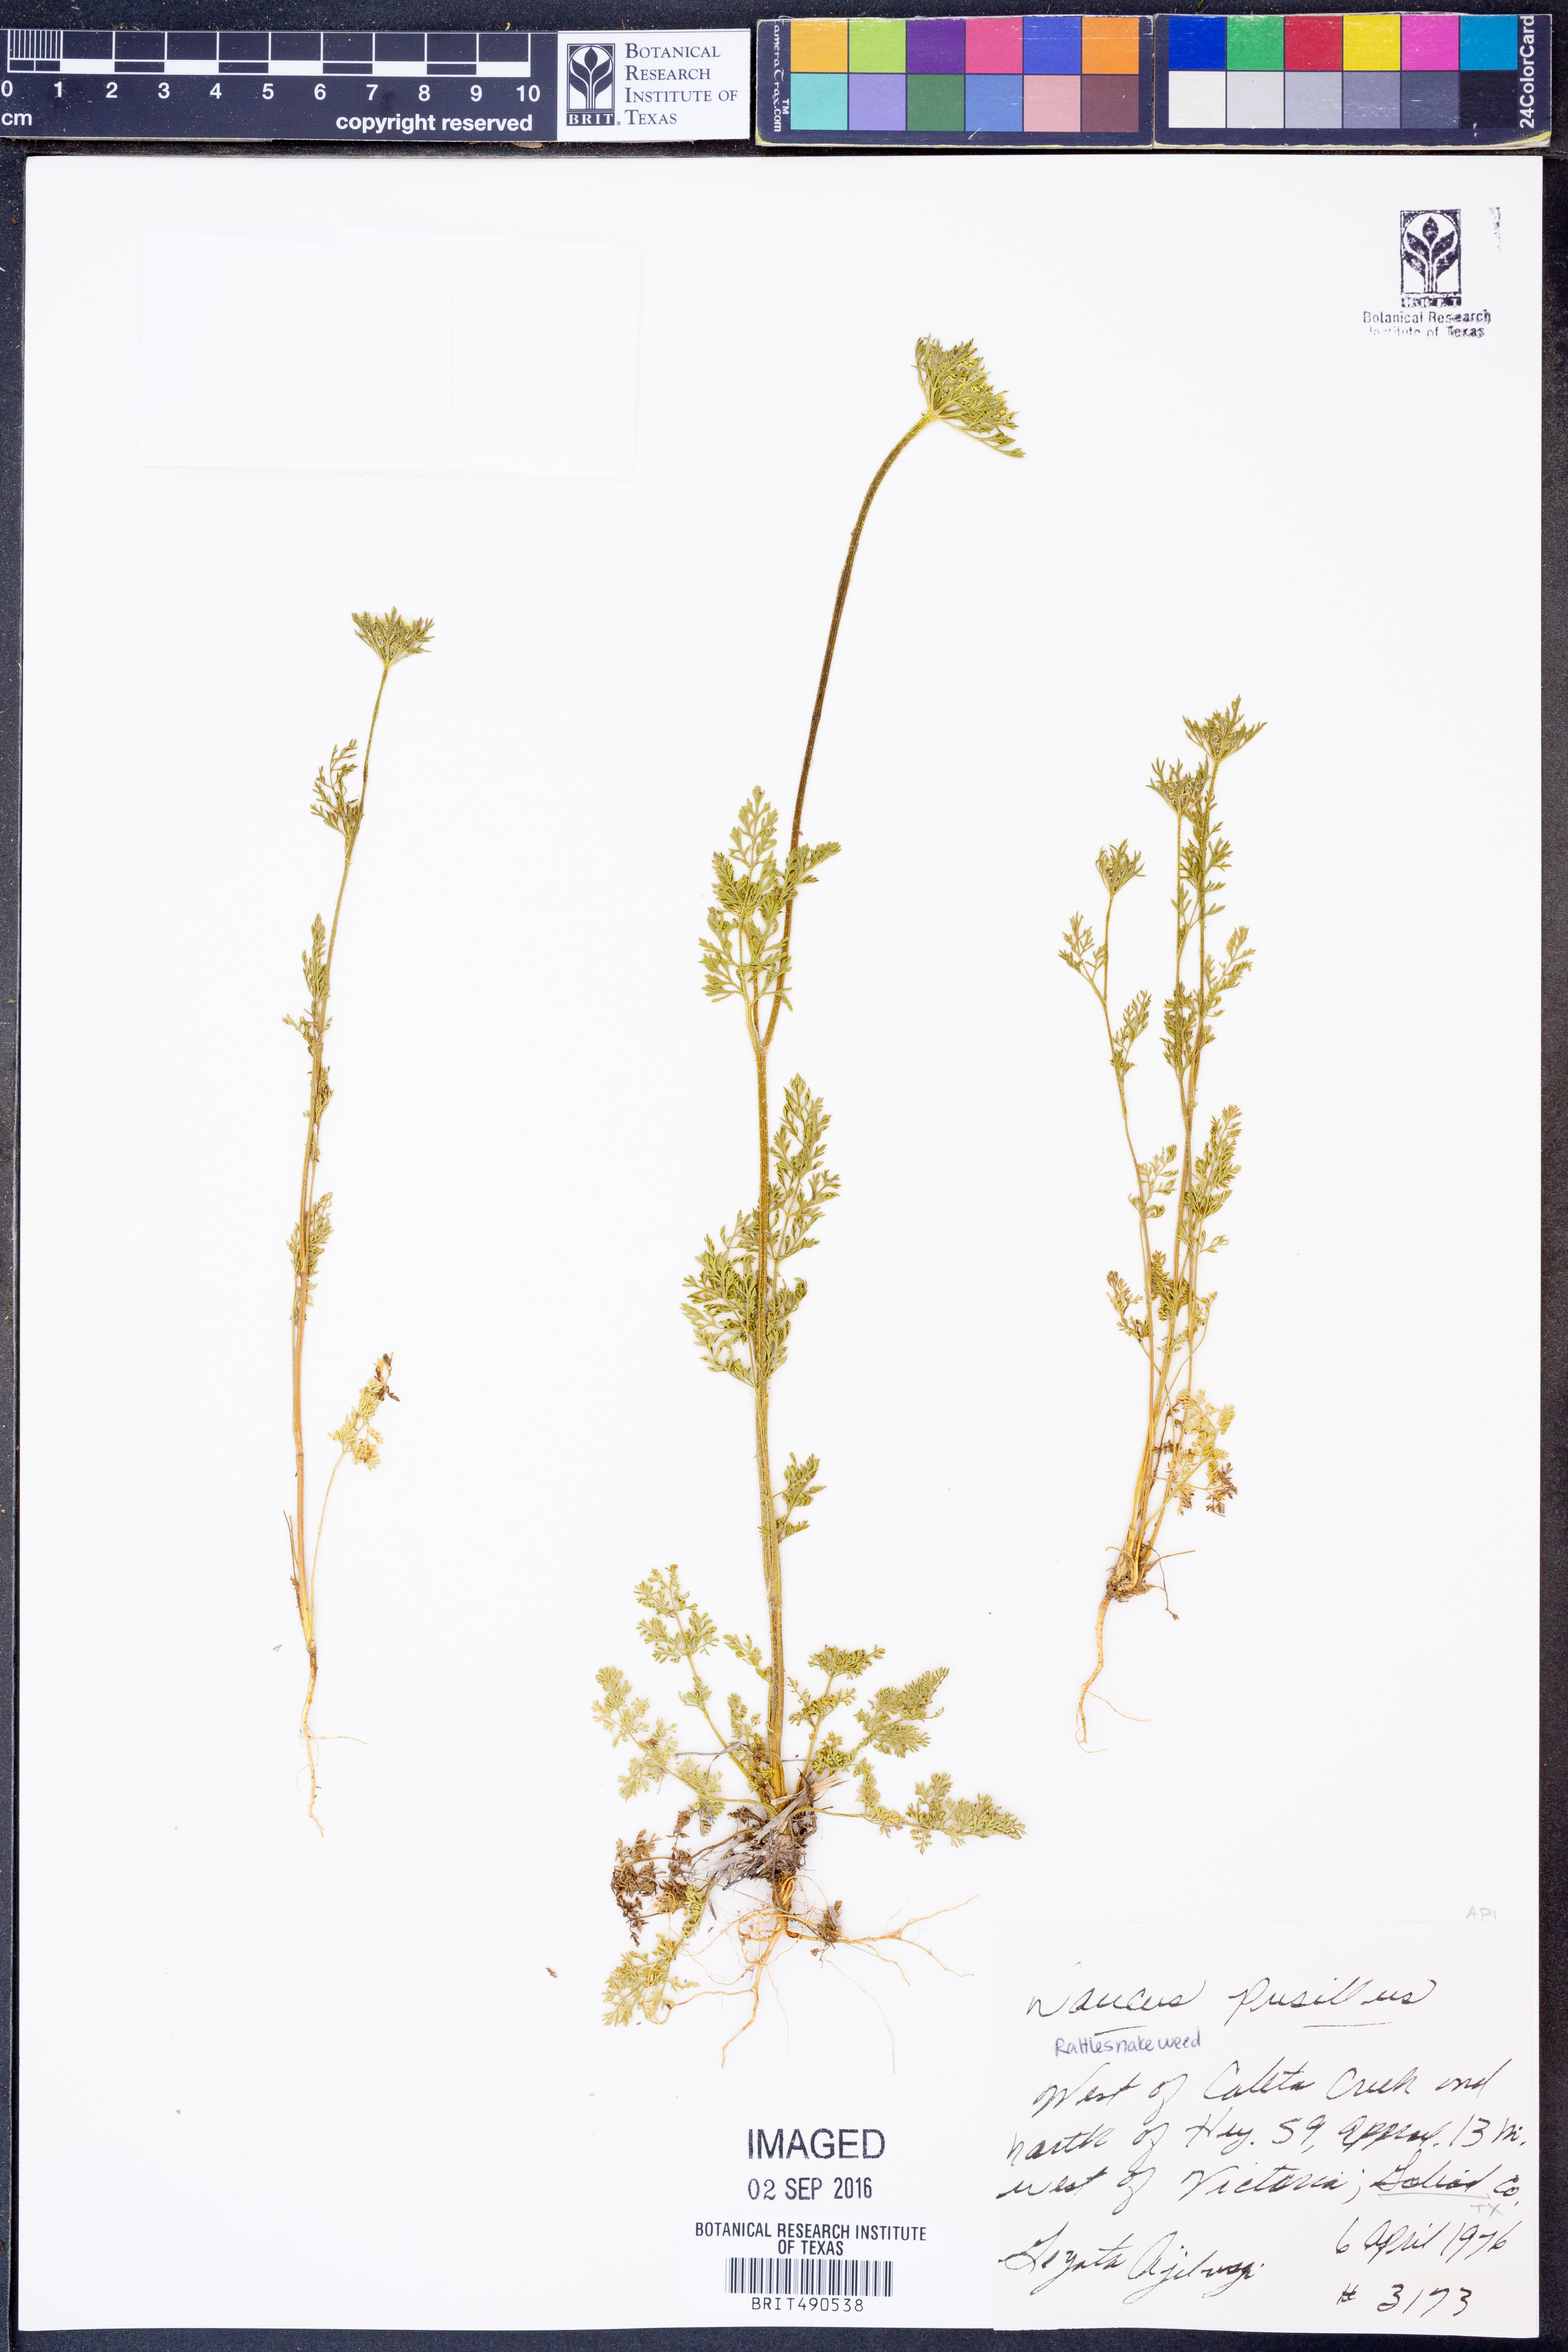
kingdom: Plantae
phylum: Tracheophyta
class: Magnoliopsida
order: Apiales
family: Apiaceae
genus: Daucus
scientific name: Daucus pusillus
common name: Southwest wild carrot
